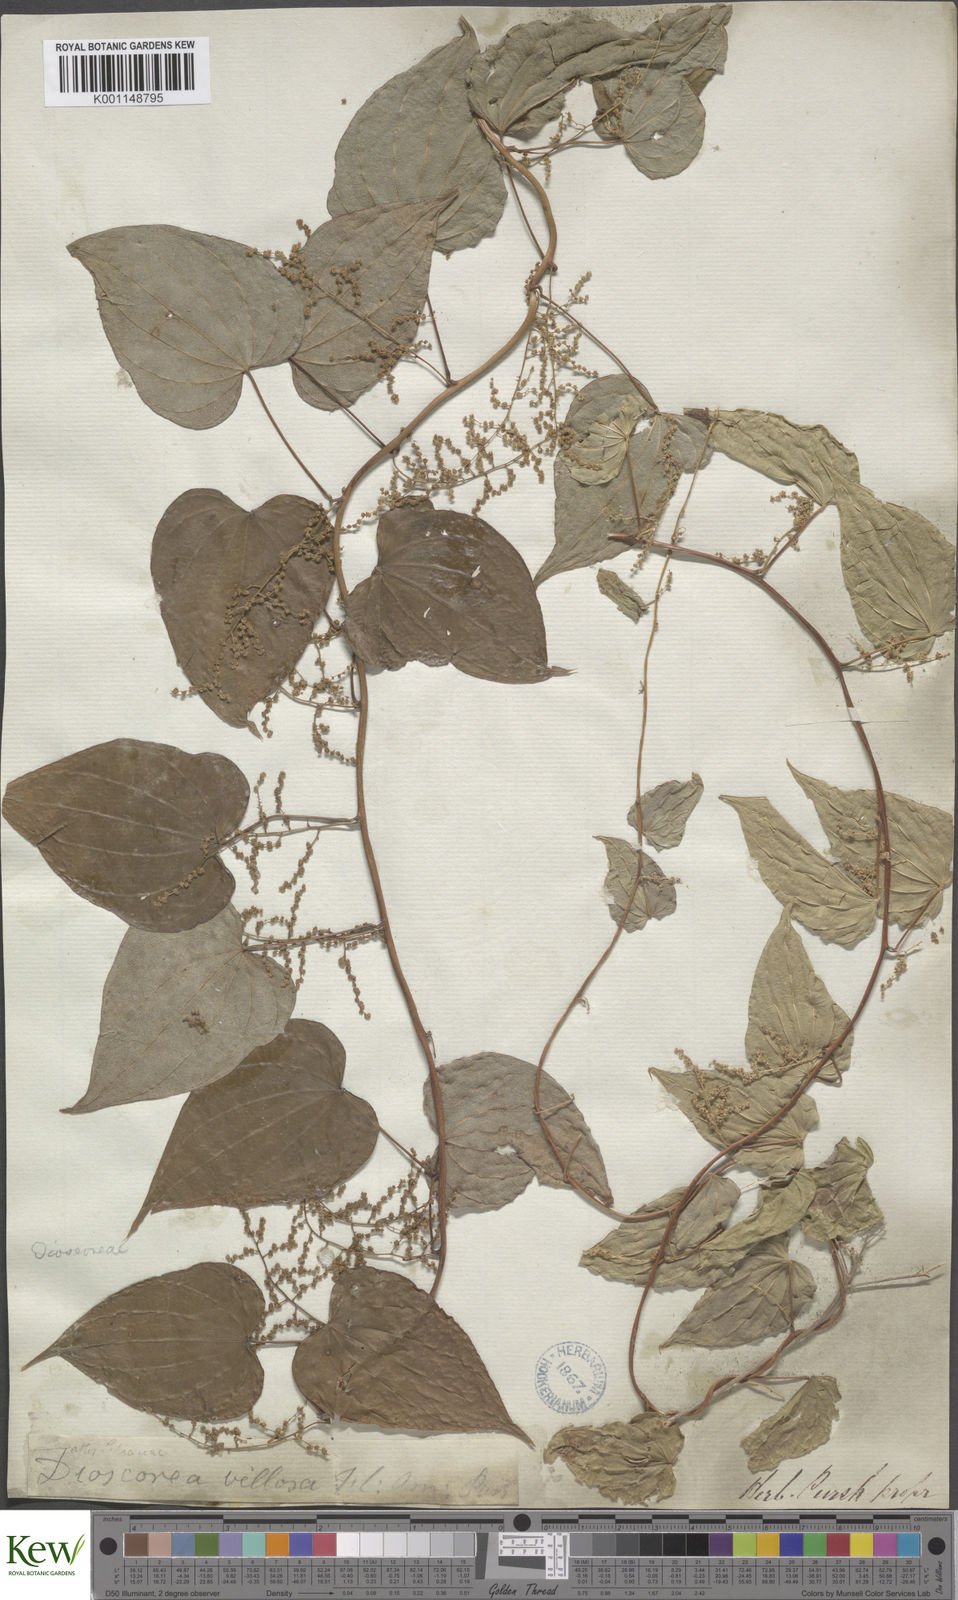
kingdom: Plantae
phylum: Tracheophyta
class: Liliopsida
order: Dioscoreales
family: Dioscoreaceae
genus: Dioscorea
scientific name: Dioscorea villosa
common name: Wild yam
